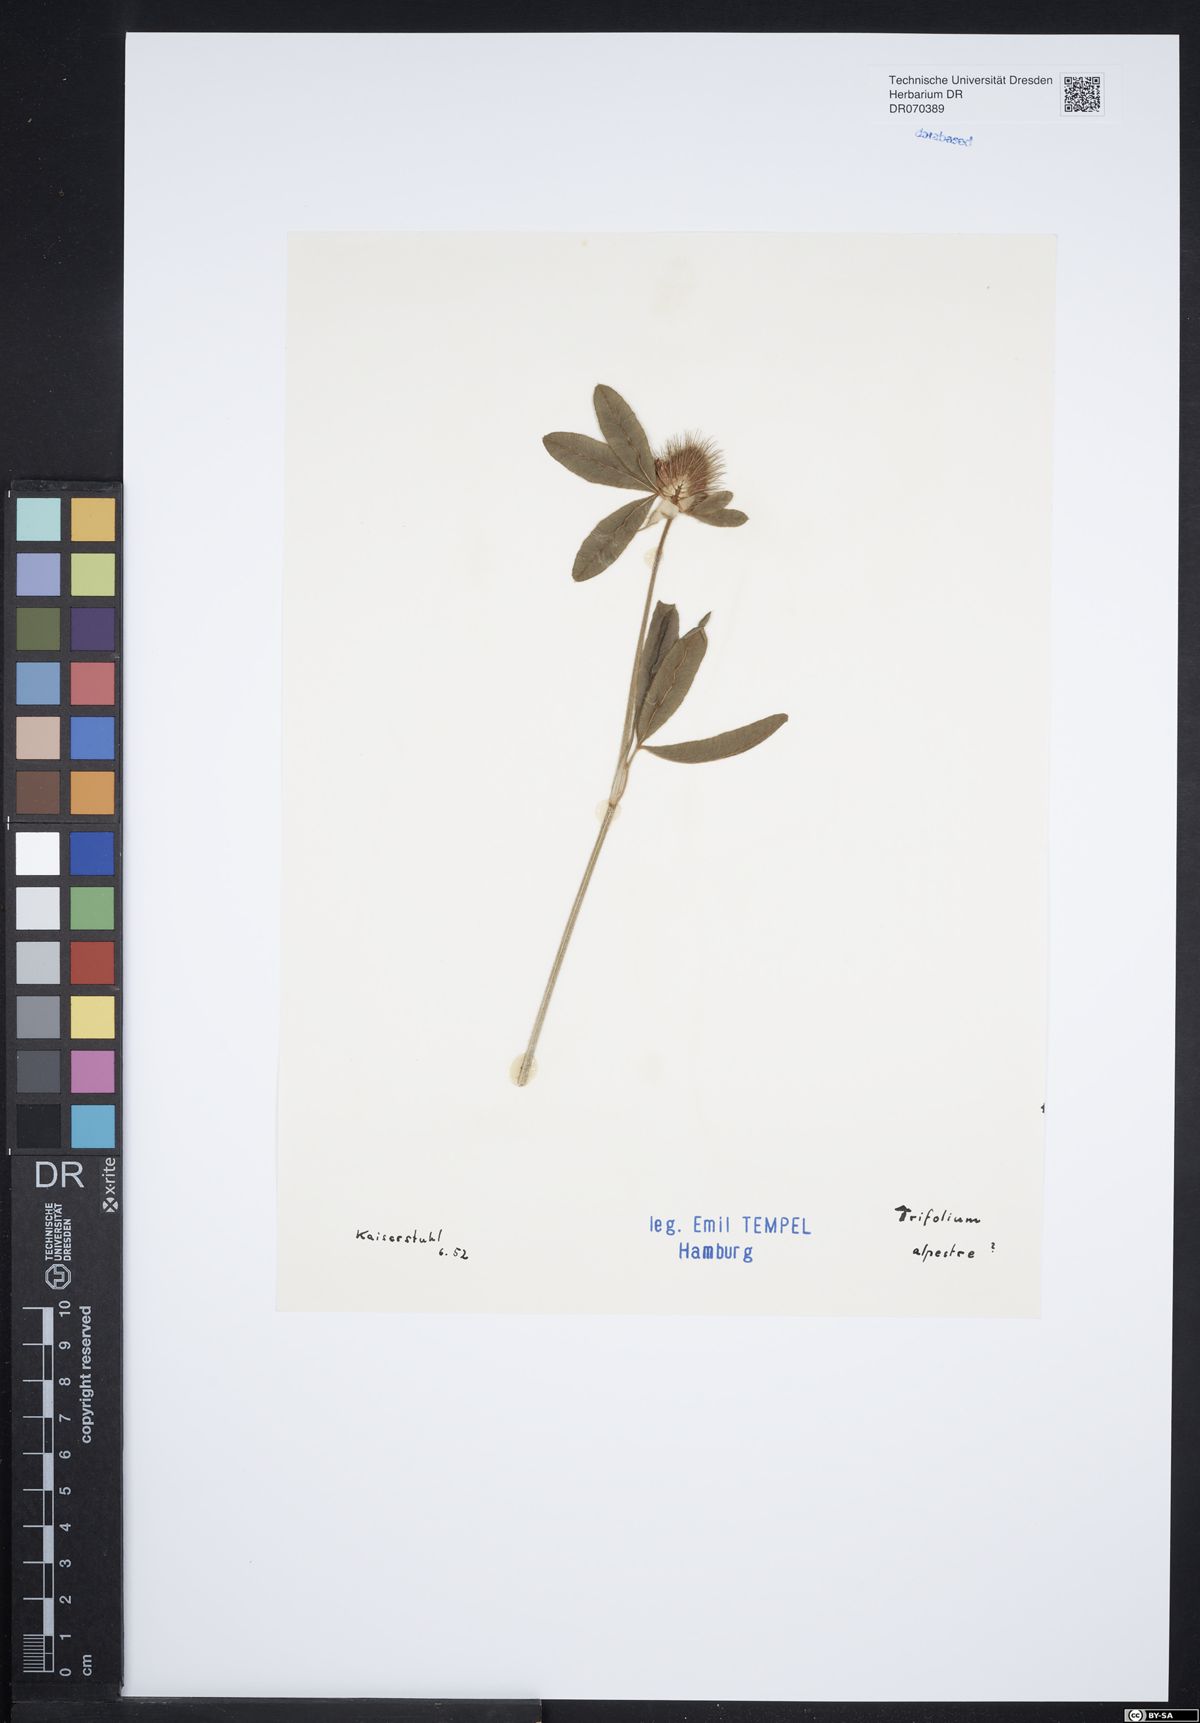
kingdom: Plantae
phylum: Tracheophyta
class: Magnoliopsida
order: Fabales
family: Fabaceae
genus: Trifolium
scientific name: Trifolium alpestre
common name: Owl-head clover
